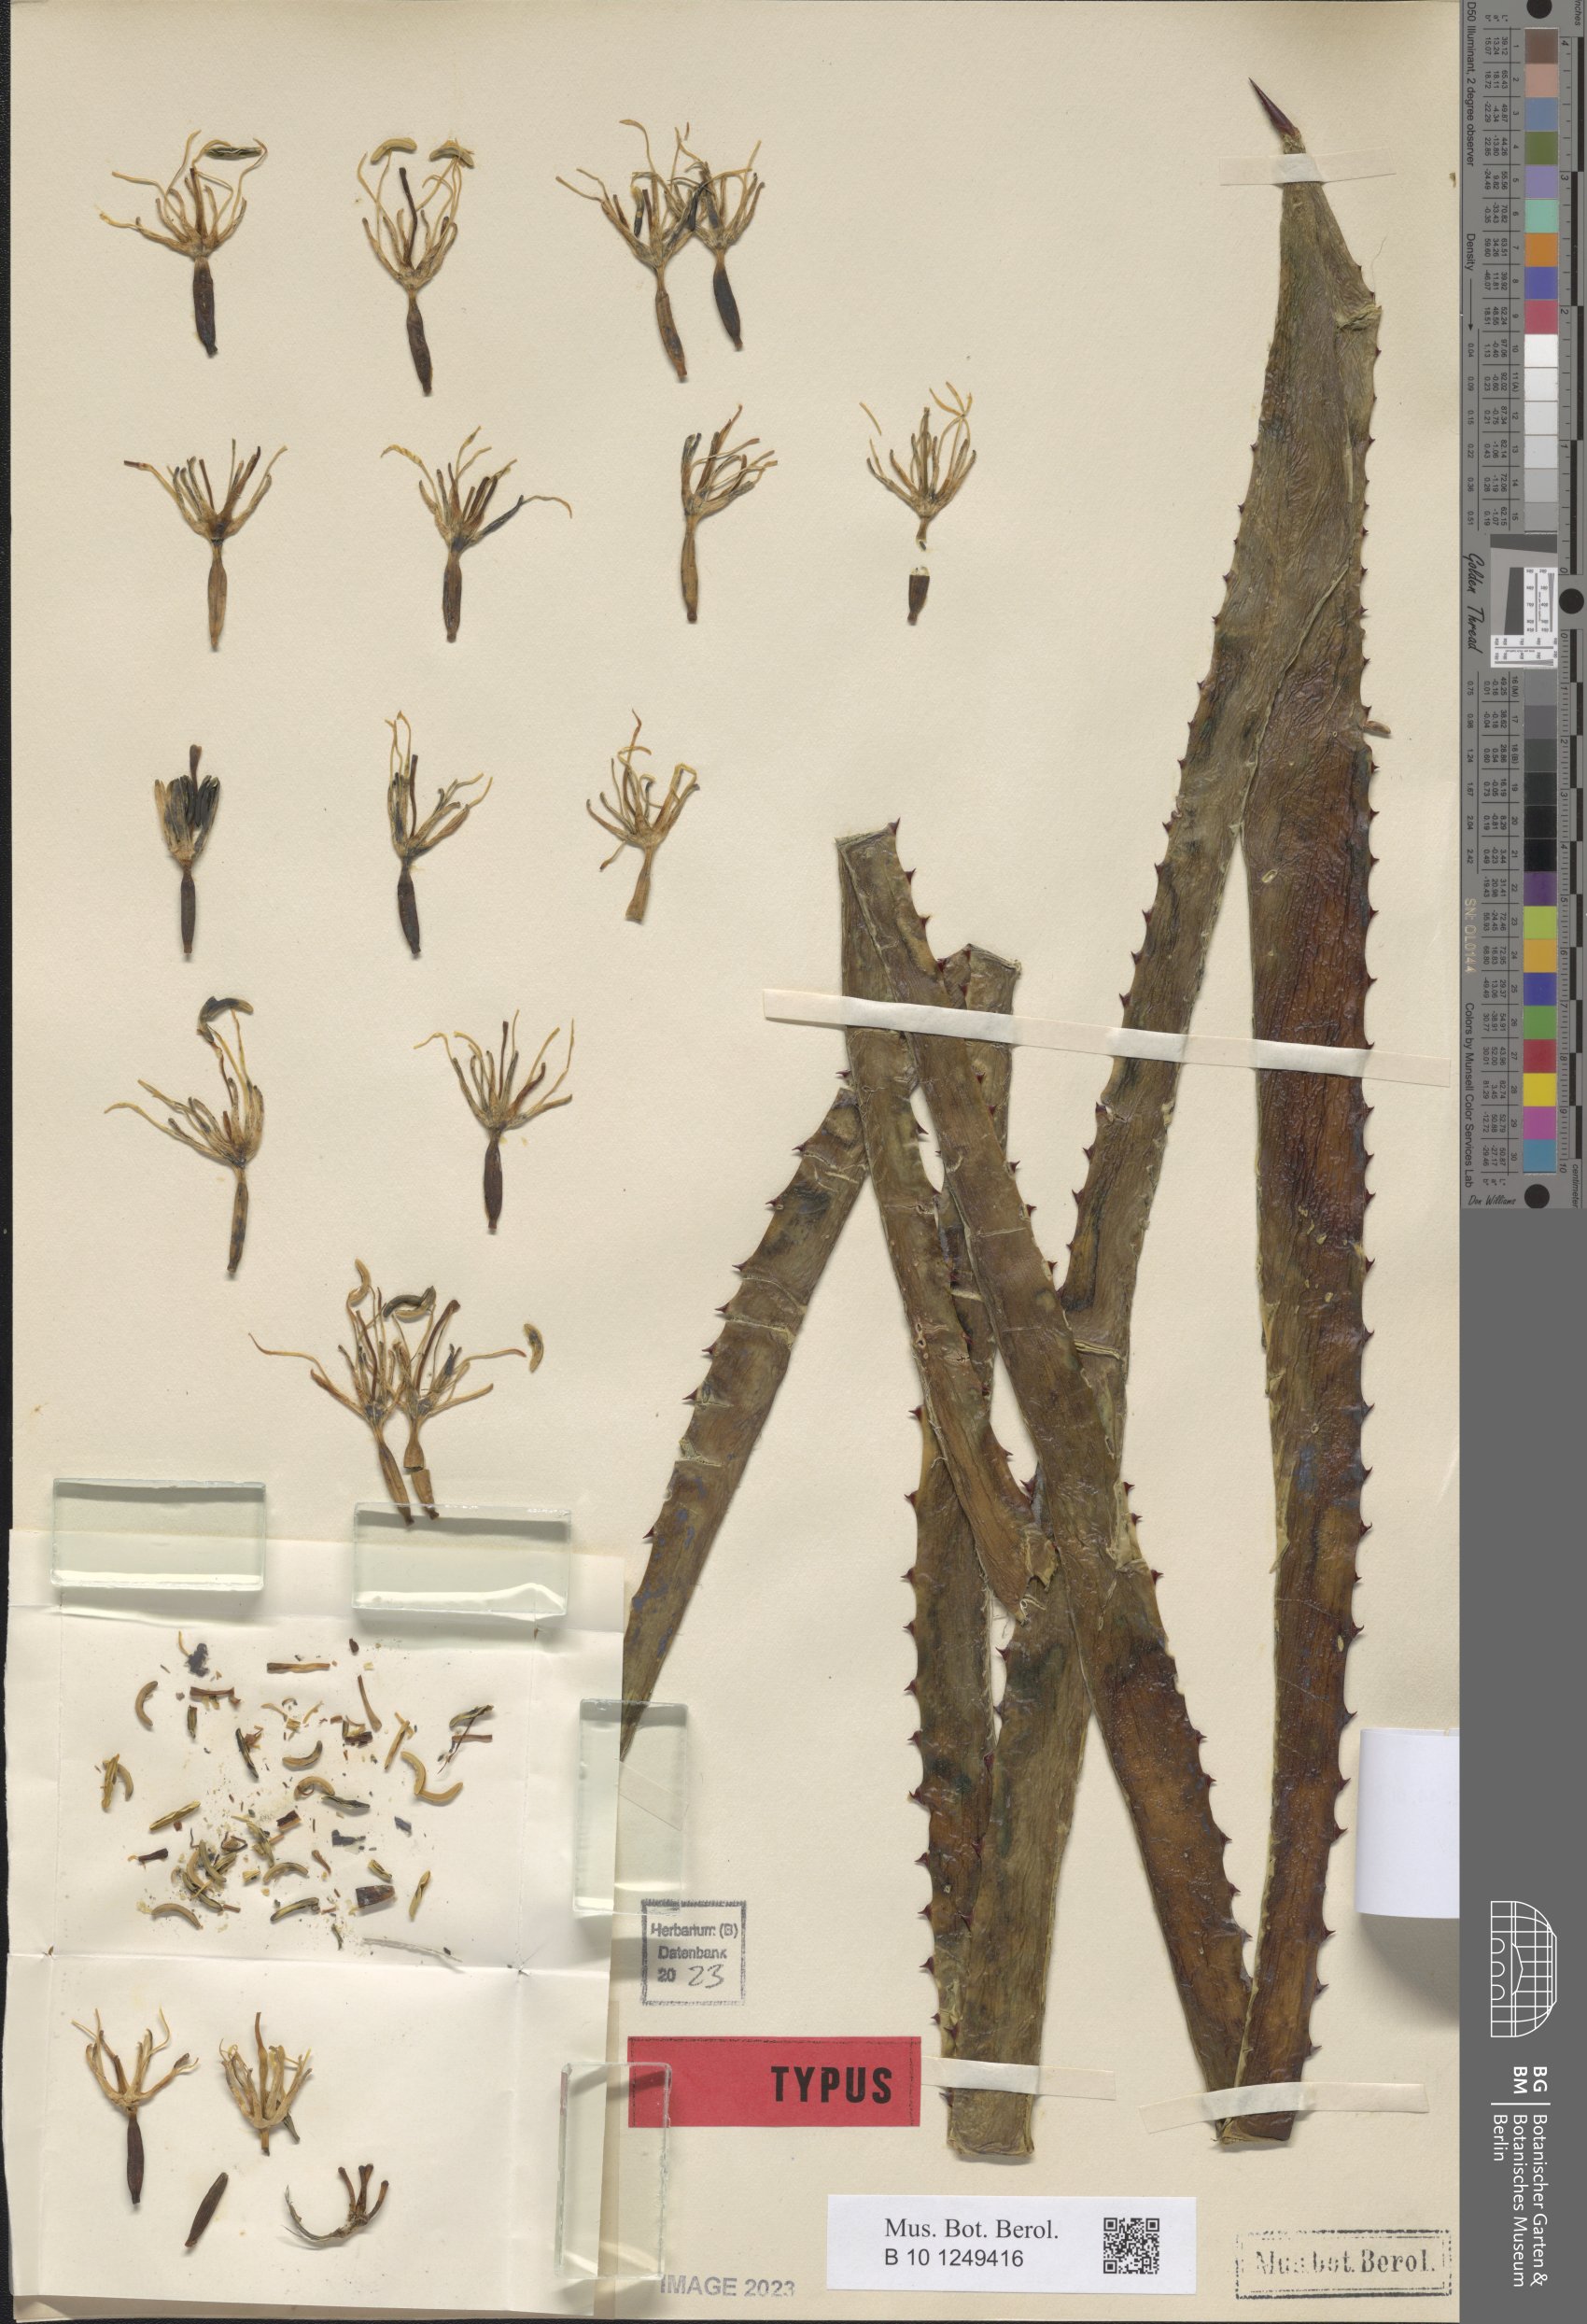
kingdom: Plantae
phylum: Tracheophyta
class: Liliopsida
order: Asparagales
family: Asparagaceae
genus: Agave
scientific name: Agave brittoniana
